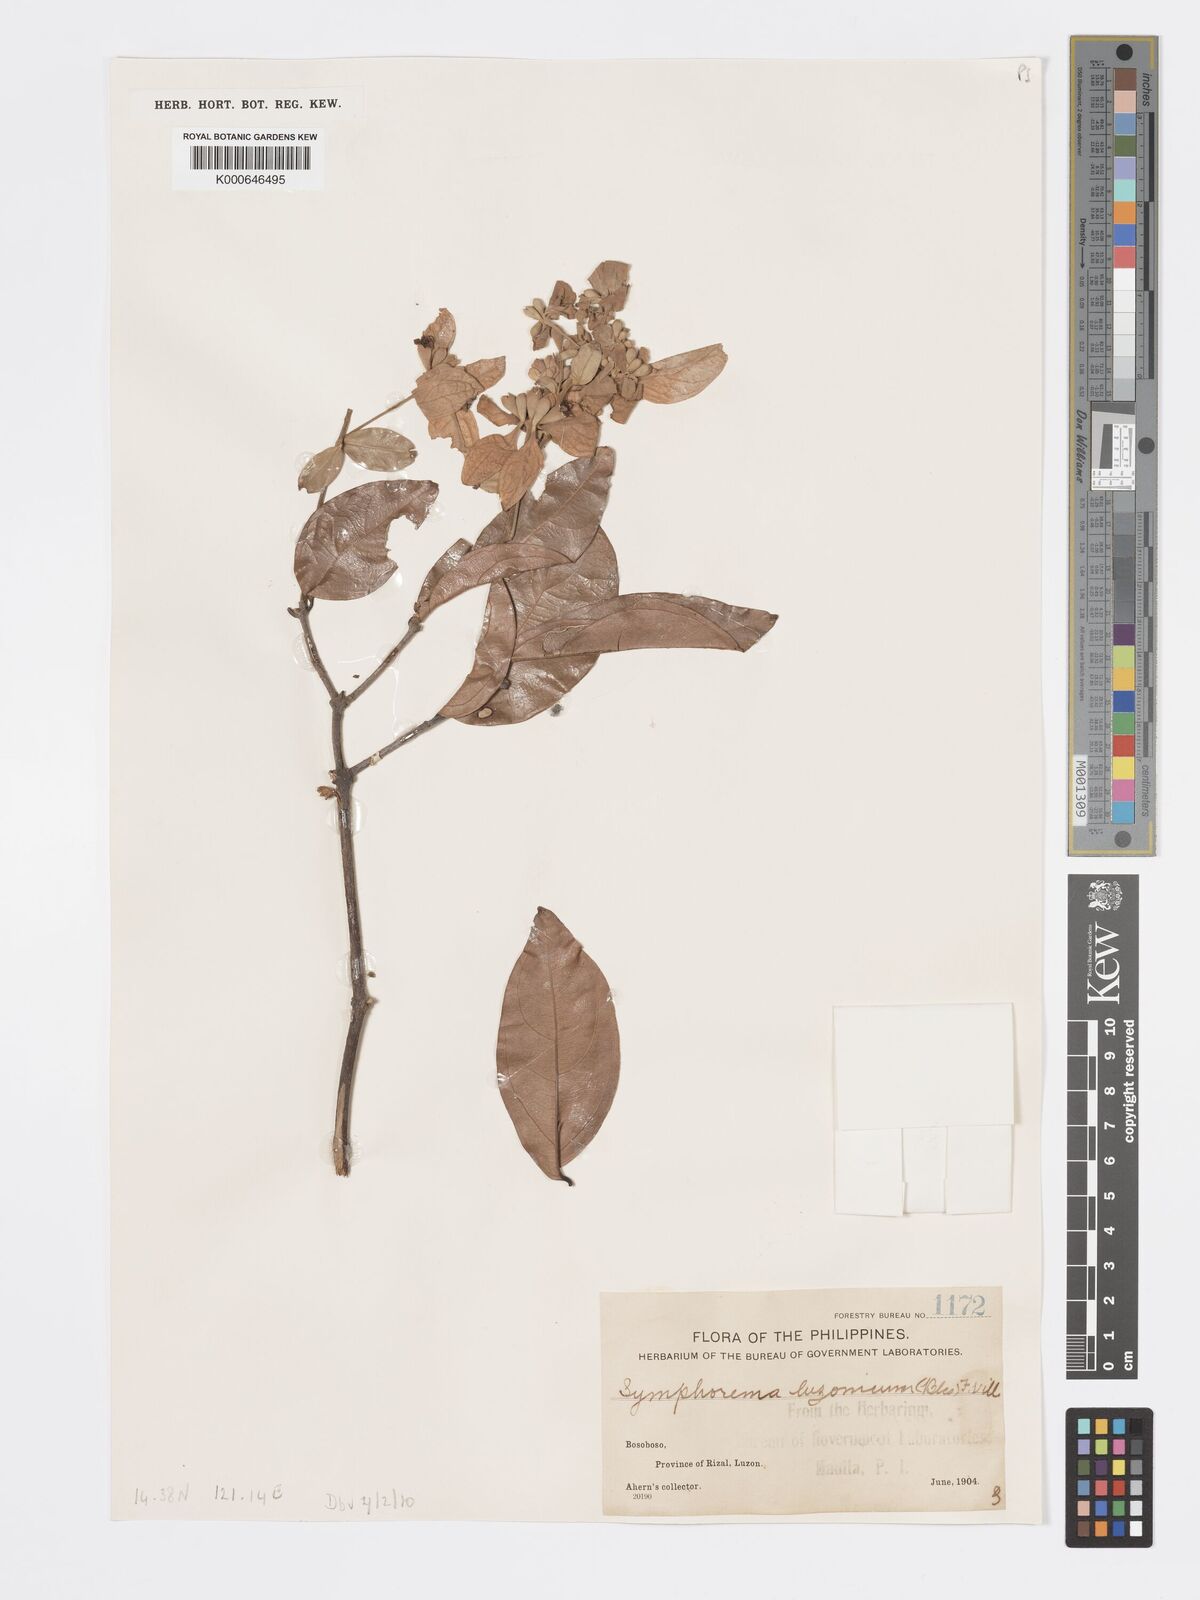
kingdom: Plantae
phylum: Tracheophyta
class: Magnoliopsida
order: Lamiales
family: Lamiaceae
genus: Symphorema
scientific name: Symphorema luzonicum
